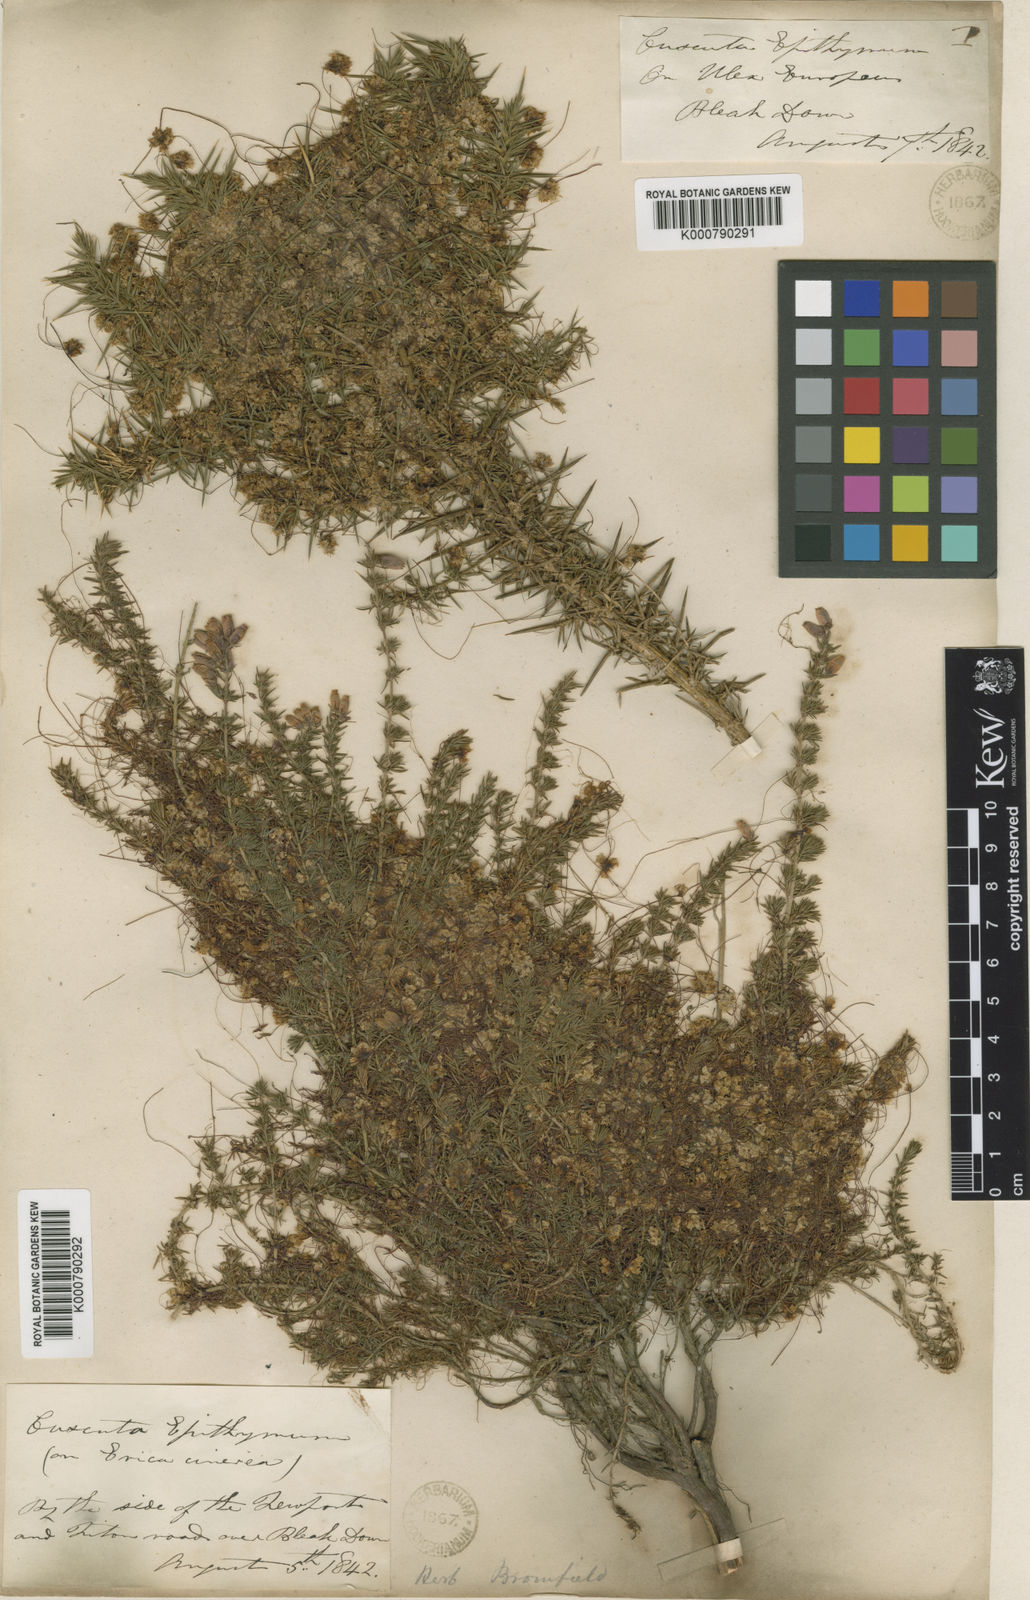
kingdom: Plantae
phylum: Tracheophyta
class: Magnoliopsida
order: Solanales
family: Convolvulaceae
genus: Cuscuta
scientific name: Cuscuta epithymum
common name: Clover dodder
